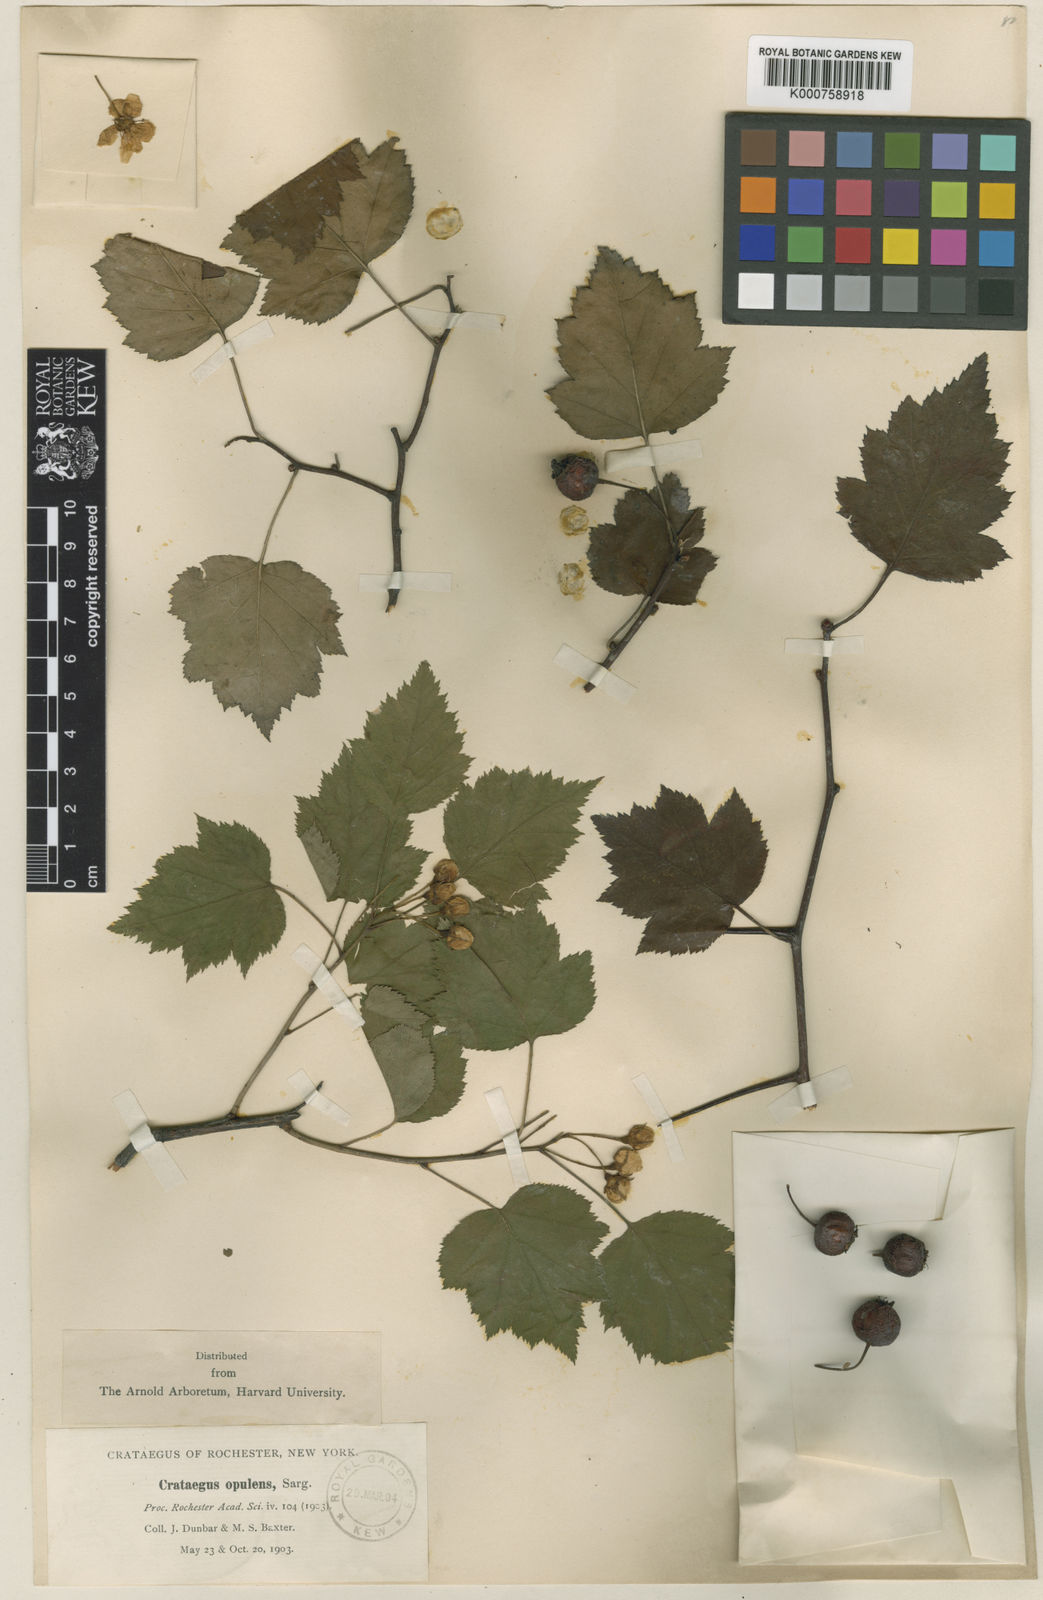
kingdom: Plantae
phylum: Tracheophyta
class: Magnoliopsida
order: Rosales
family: Rosaceae
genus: Crataegus
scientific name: Crataegus opulens
